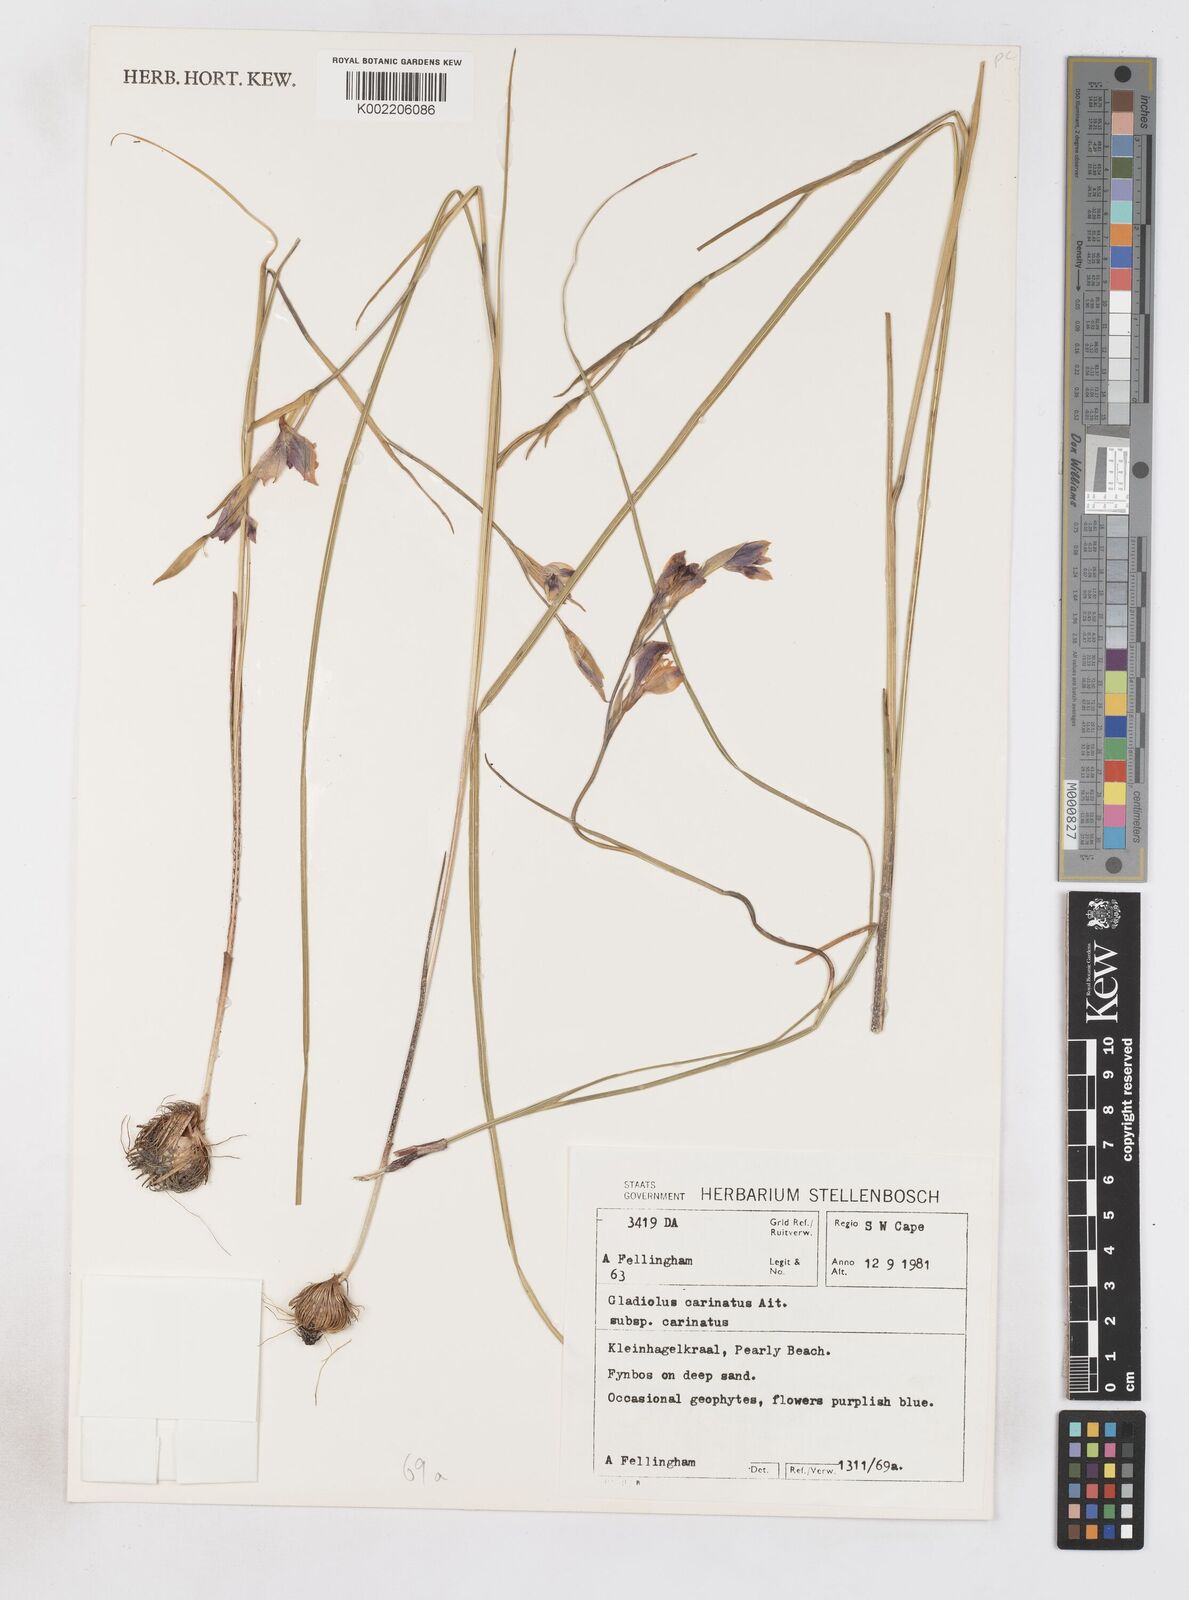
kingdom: Plantae
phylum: Tracheophyta
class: Liliopsida
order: Asparagales
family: Iridaceae
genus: Gladiolus
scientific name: Gladiolus carinatus
